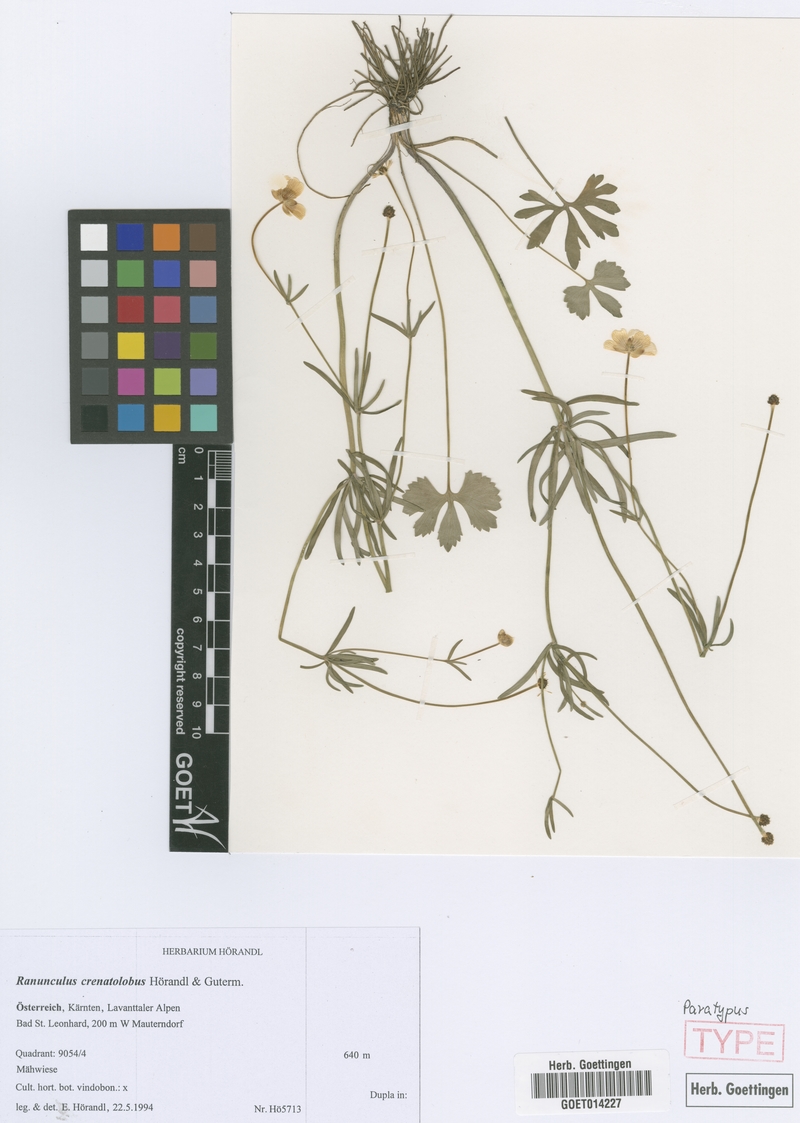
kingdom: Plantae
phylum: Tracheophyta
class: Magnoliopsida
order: Ranunculales
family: Ranunculaceae
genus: Ranunculus
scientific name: Ranunculus crenatolobus
